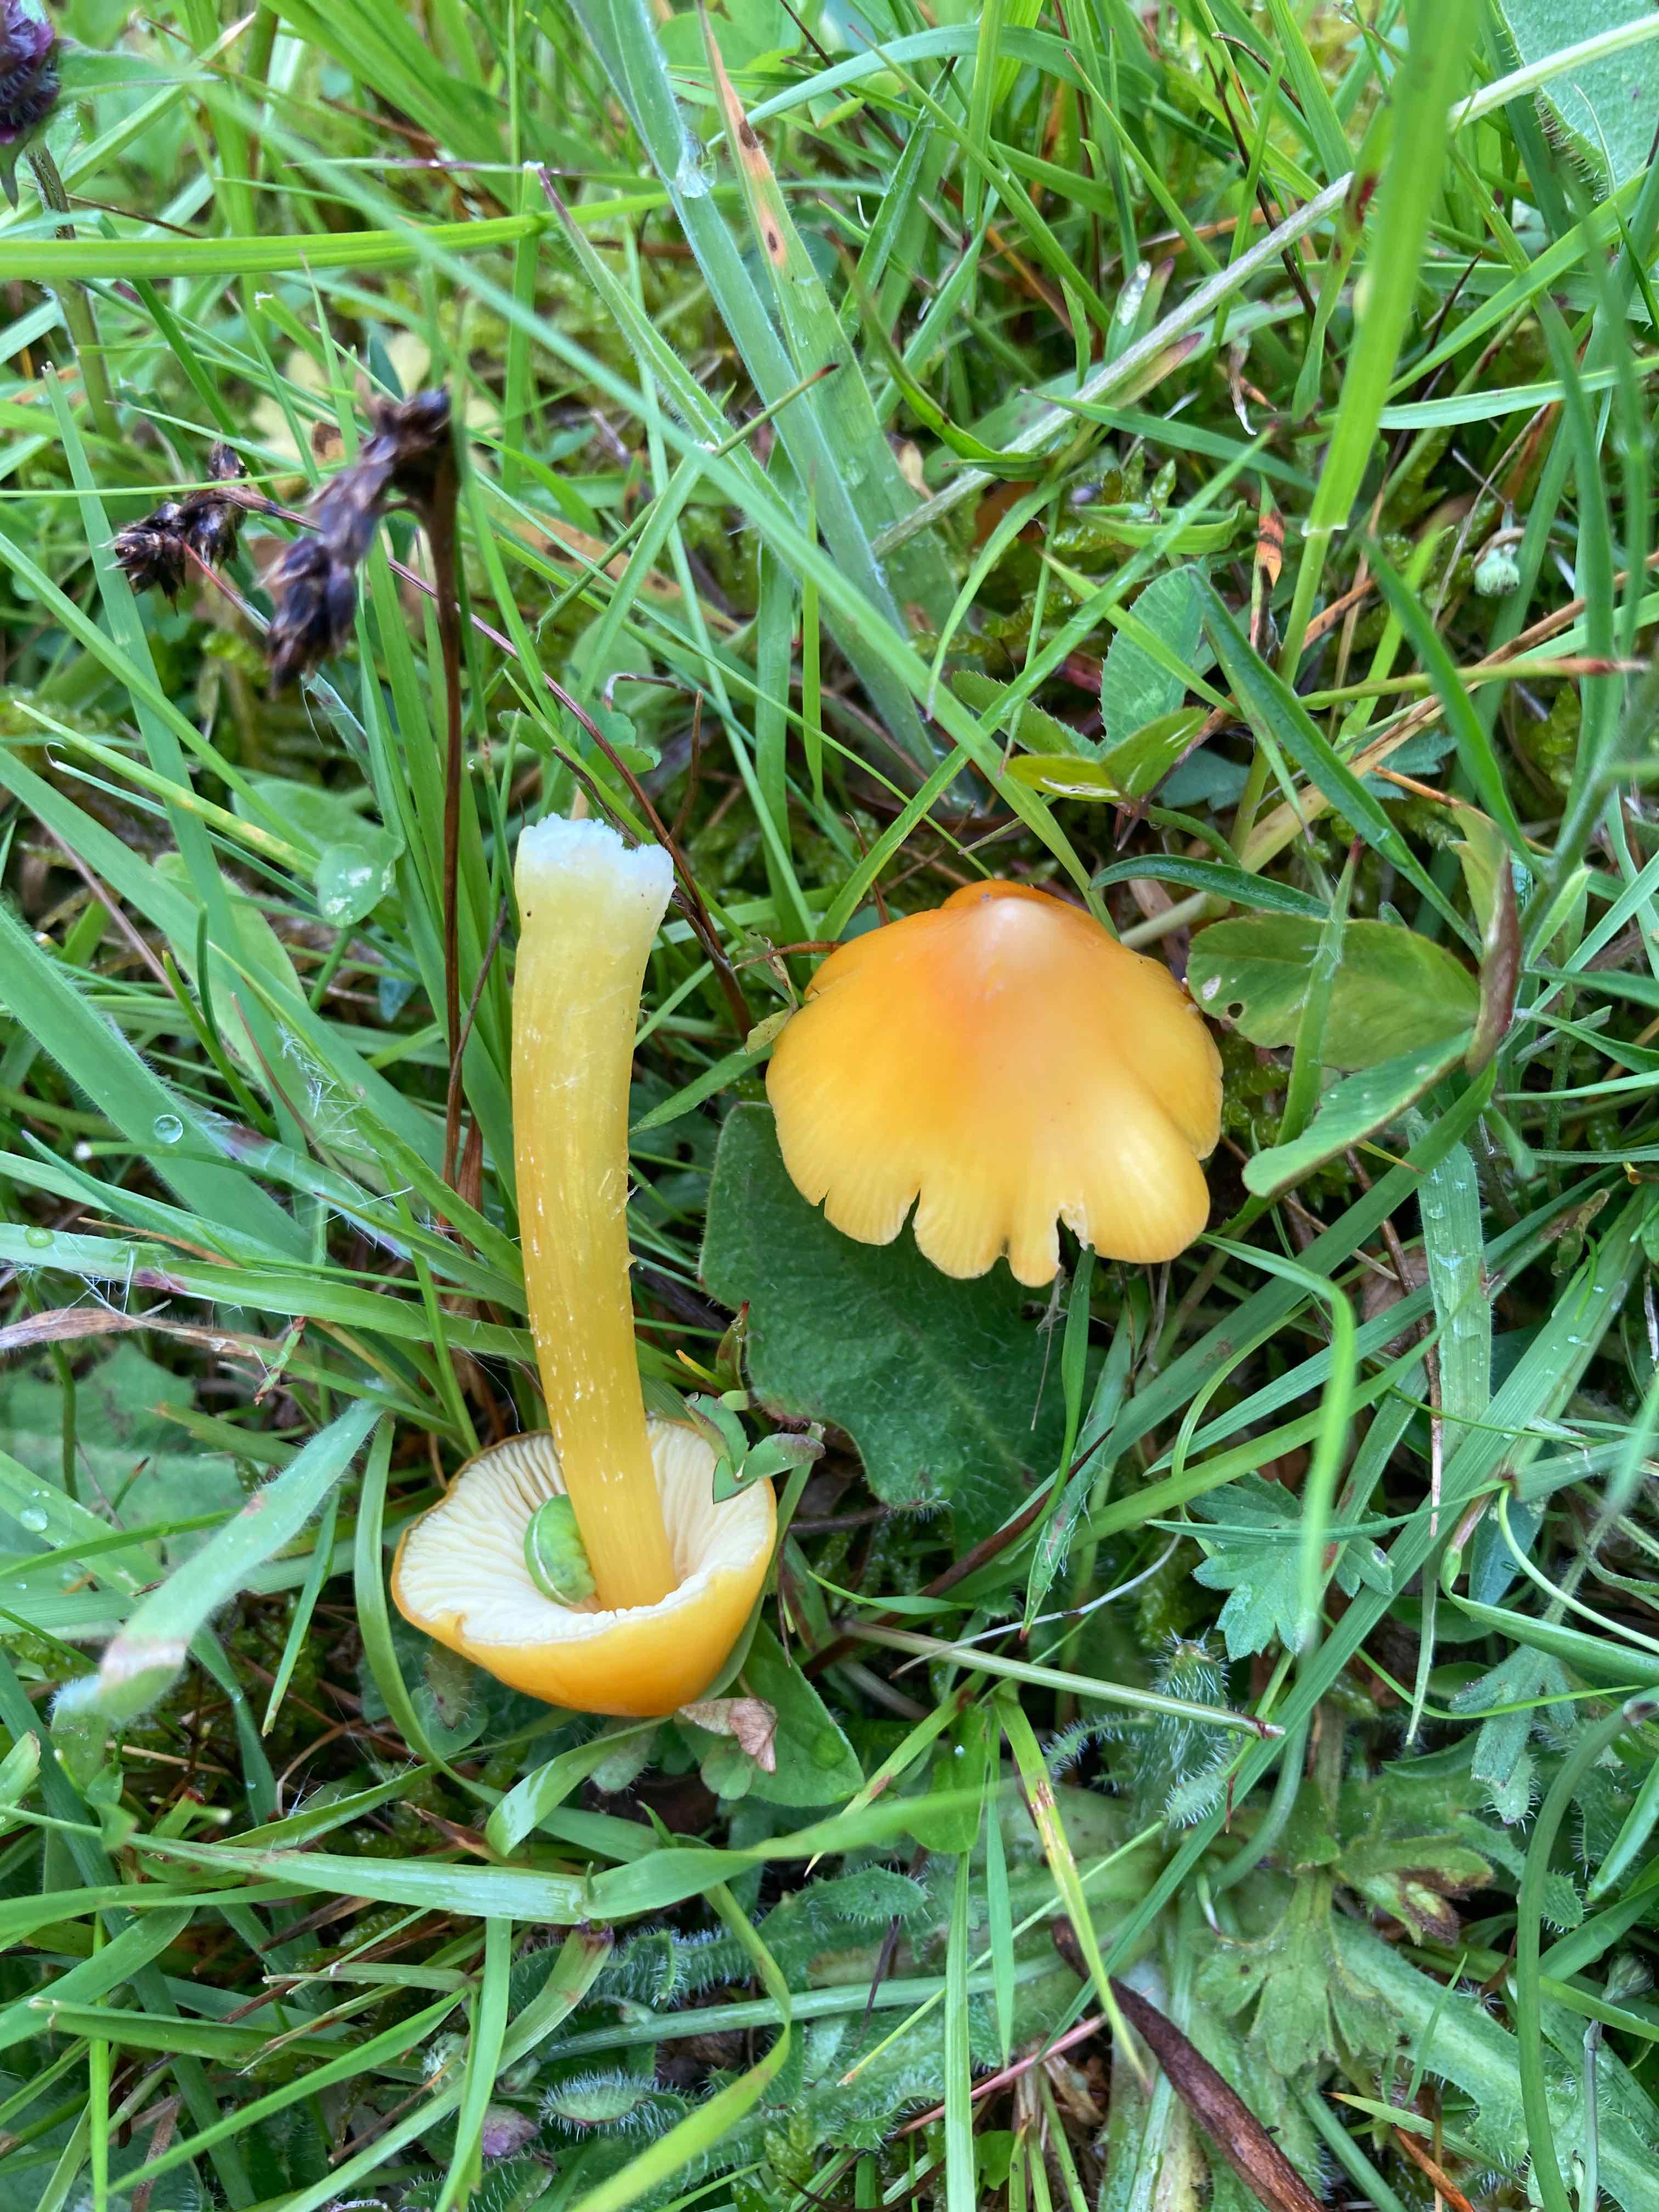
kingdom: Fungi
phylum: Basidiomycota
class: Agaricomycetes
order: Agaricales
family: Hygrophoraceae
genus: Hygrocybe
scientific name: Hygrocybe acutoconica
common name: spidspuklet vokshat
